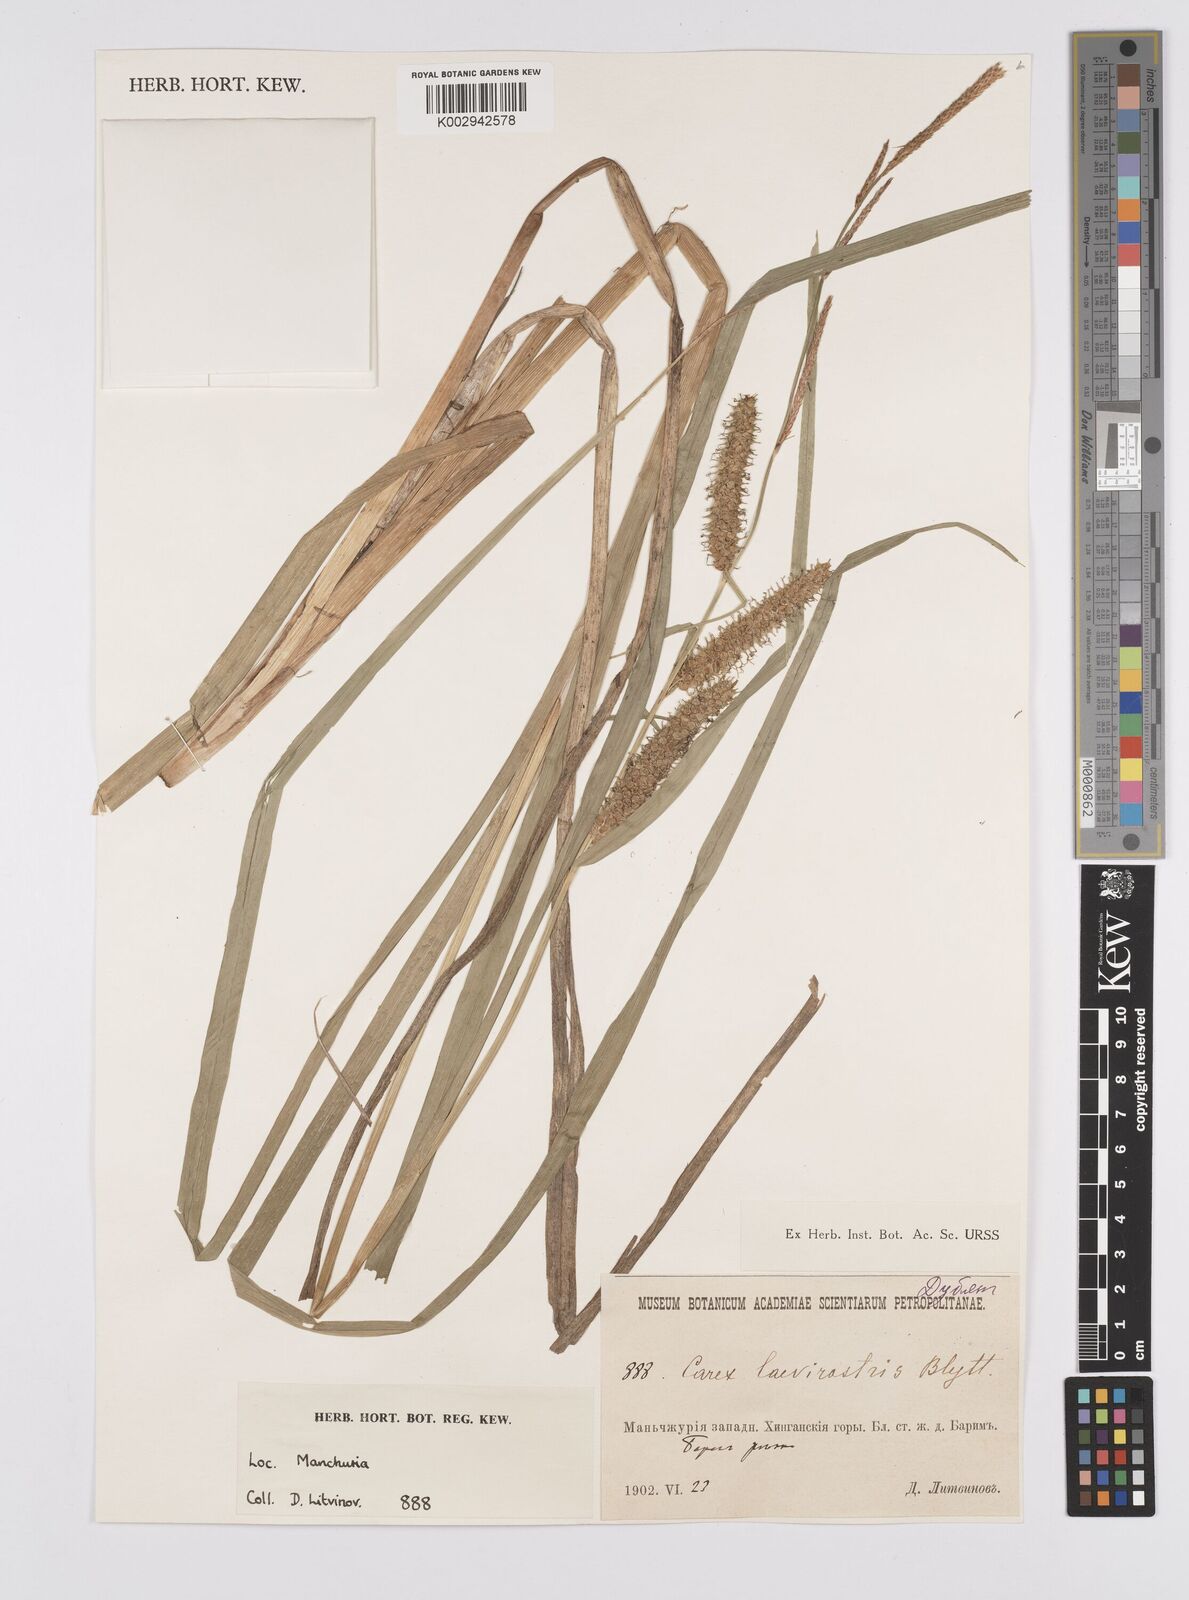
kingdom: Plantae
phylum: Tracheophyta
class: Liliopsida
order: Poales
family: Cyperaceae
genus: Carex
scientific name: Carex utriculata
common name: Beaked sedge
